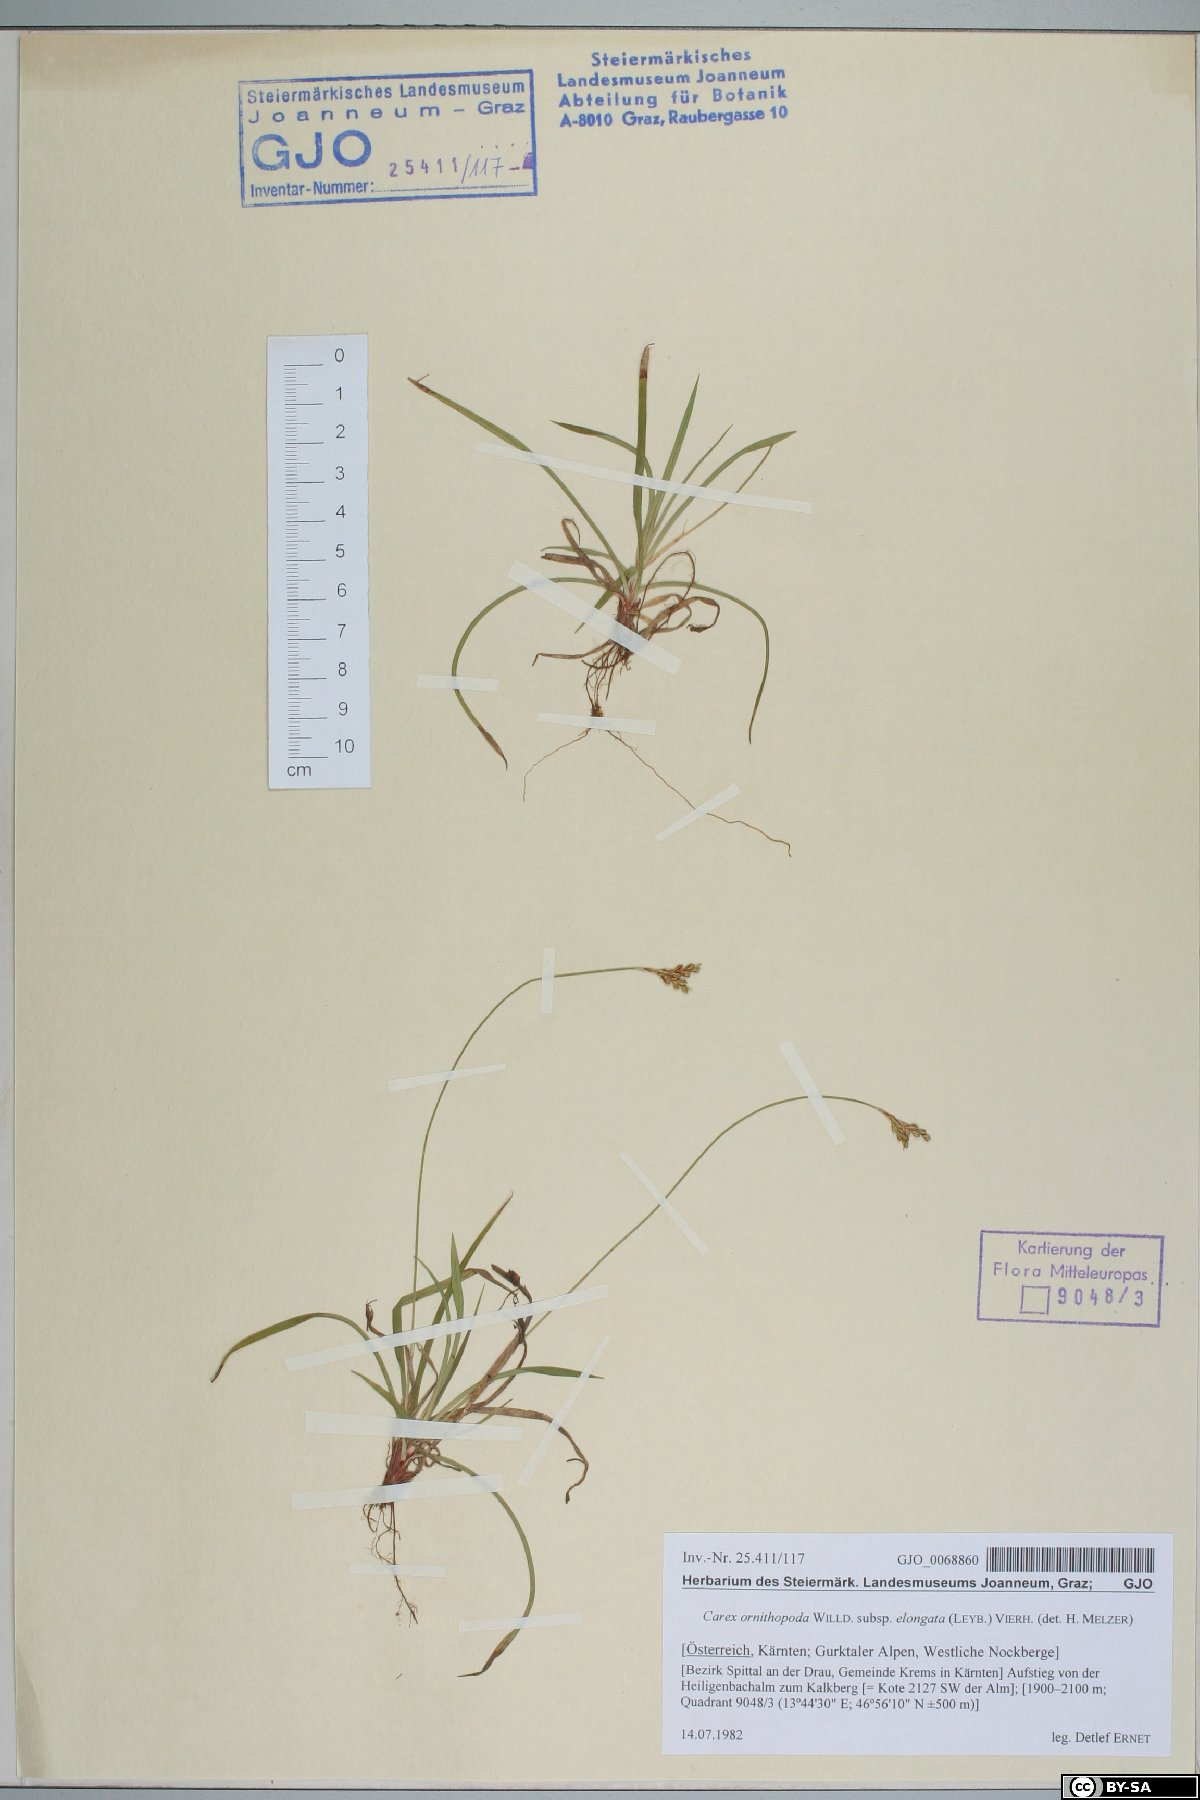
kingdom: Plantae
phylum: Tracheophyta
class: Liliopsida
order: Poales
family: Cyperaceae
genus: Carex
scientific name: Carex ornithopoda
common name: Bird's-foot sedge
